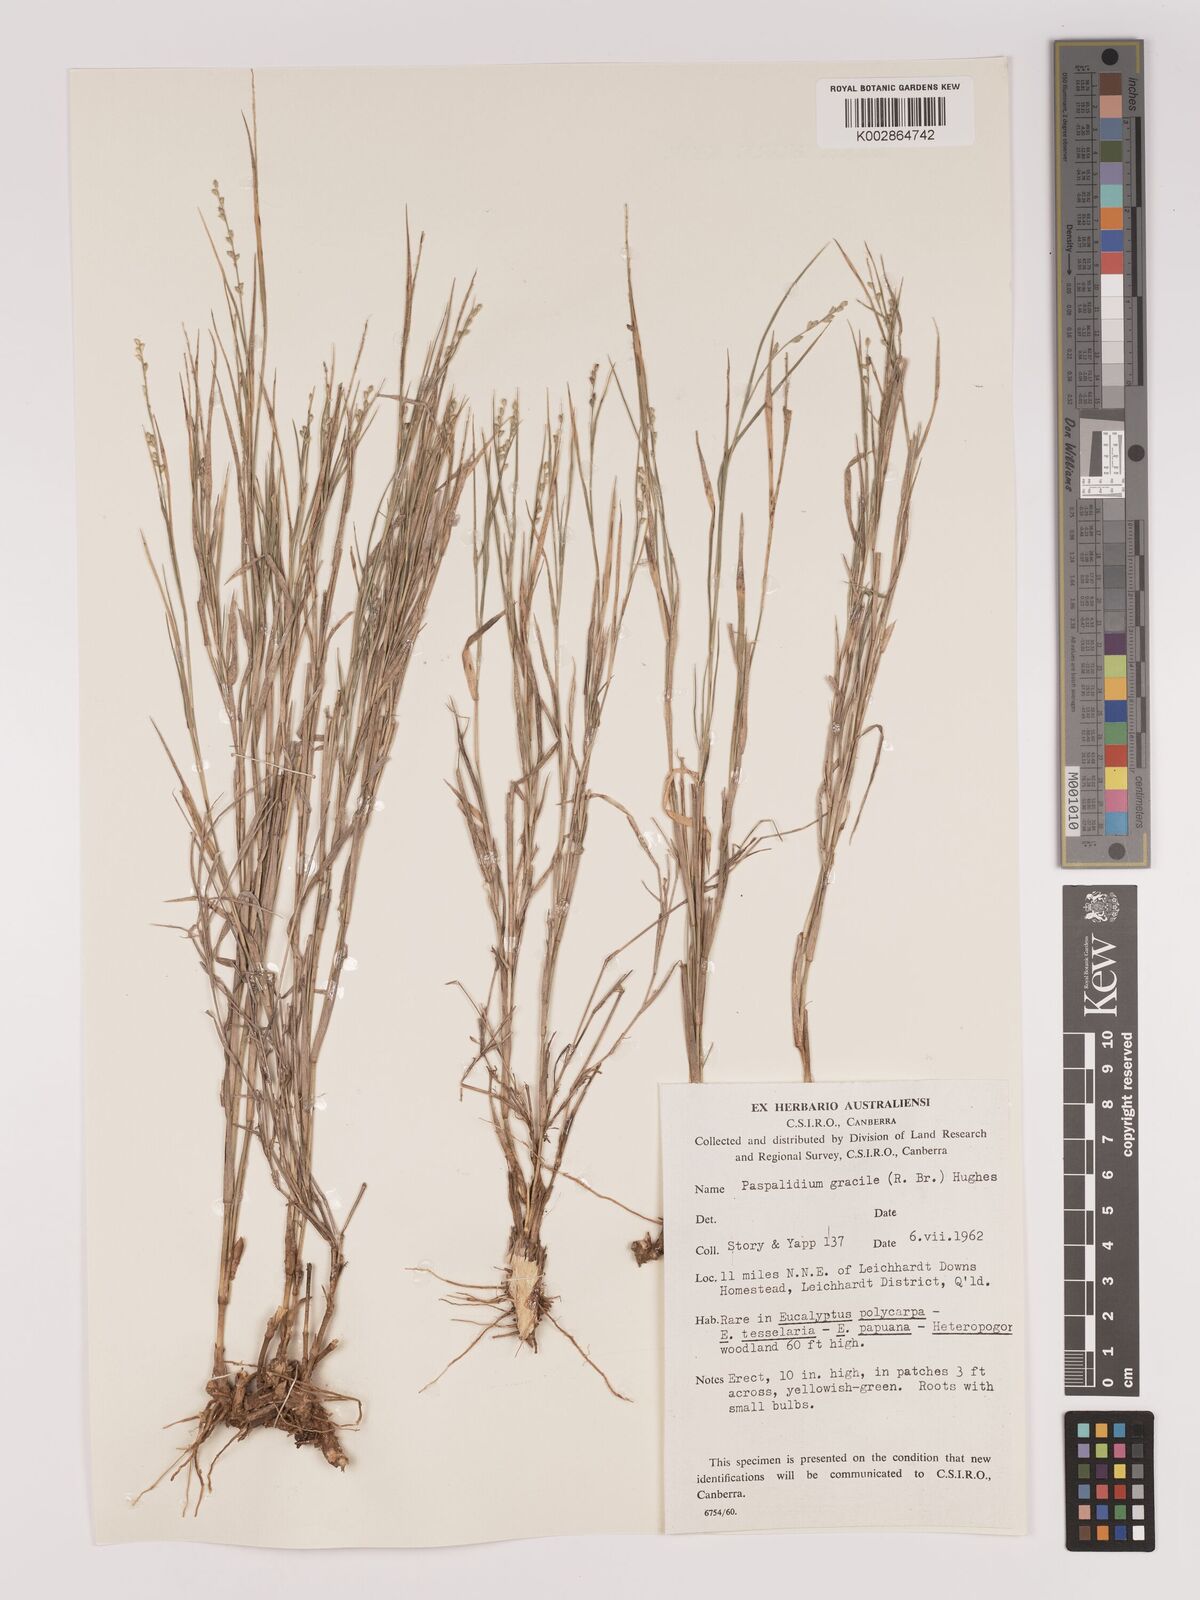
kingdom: Plantae
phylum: Tracheophyta
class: Liliopsida
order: Poales
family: Poaceae
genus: Setaria
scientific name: Setaria brownii
